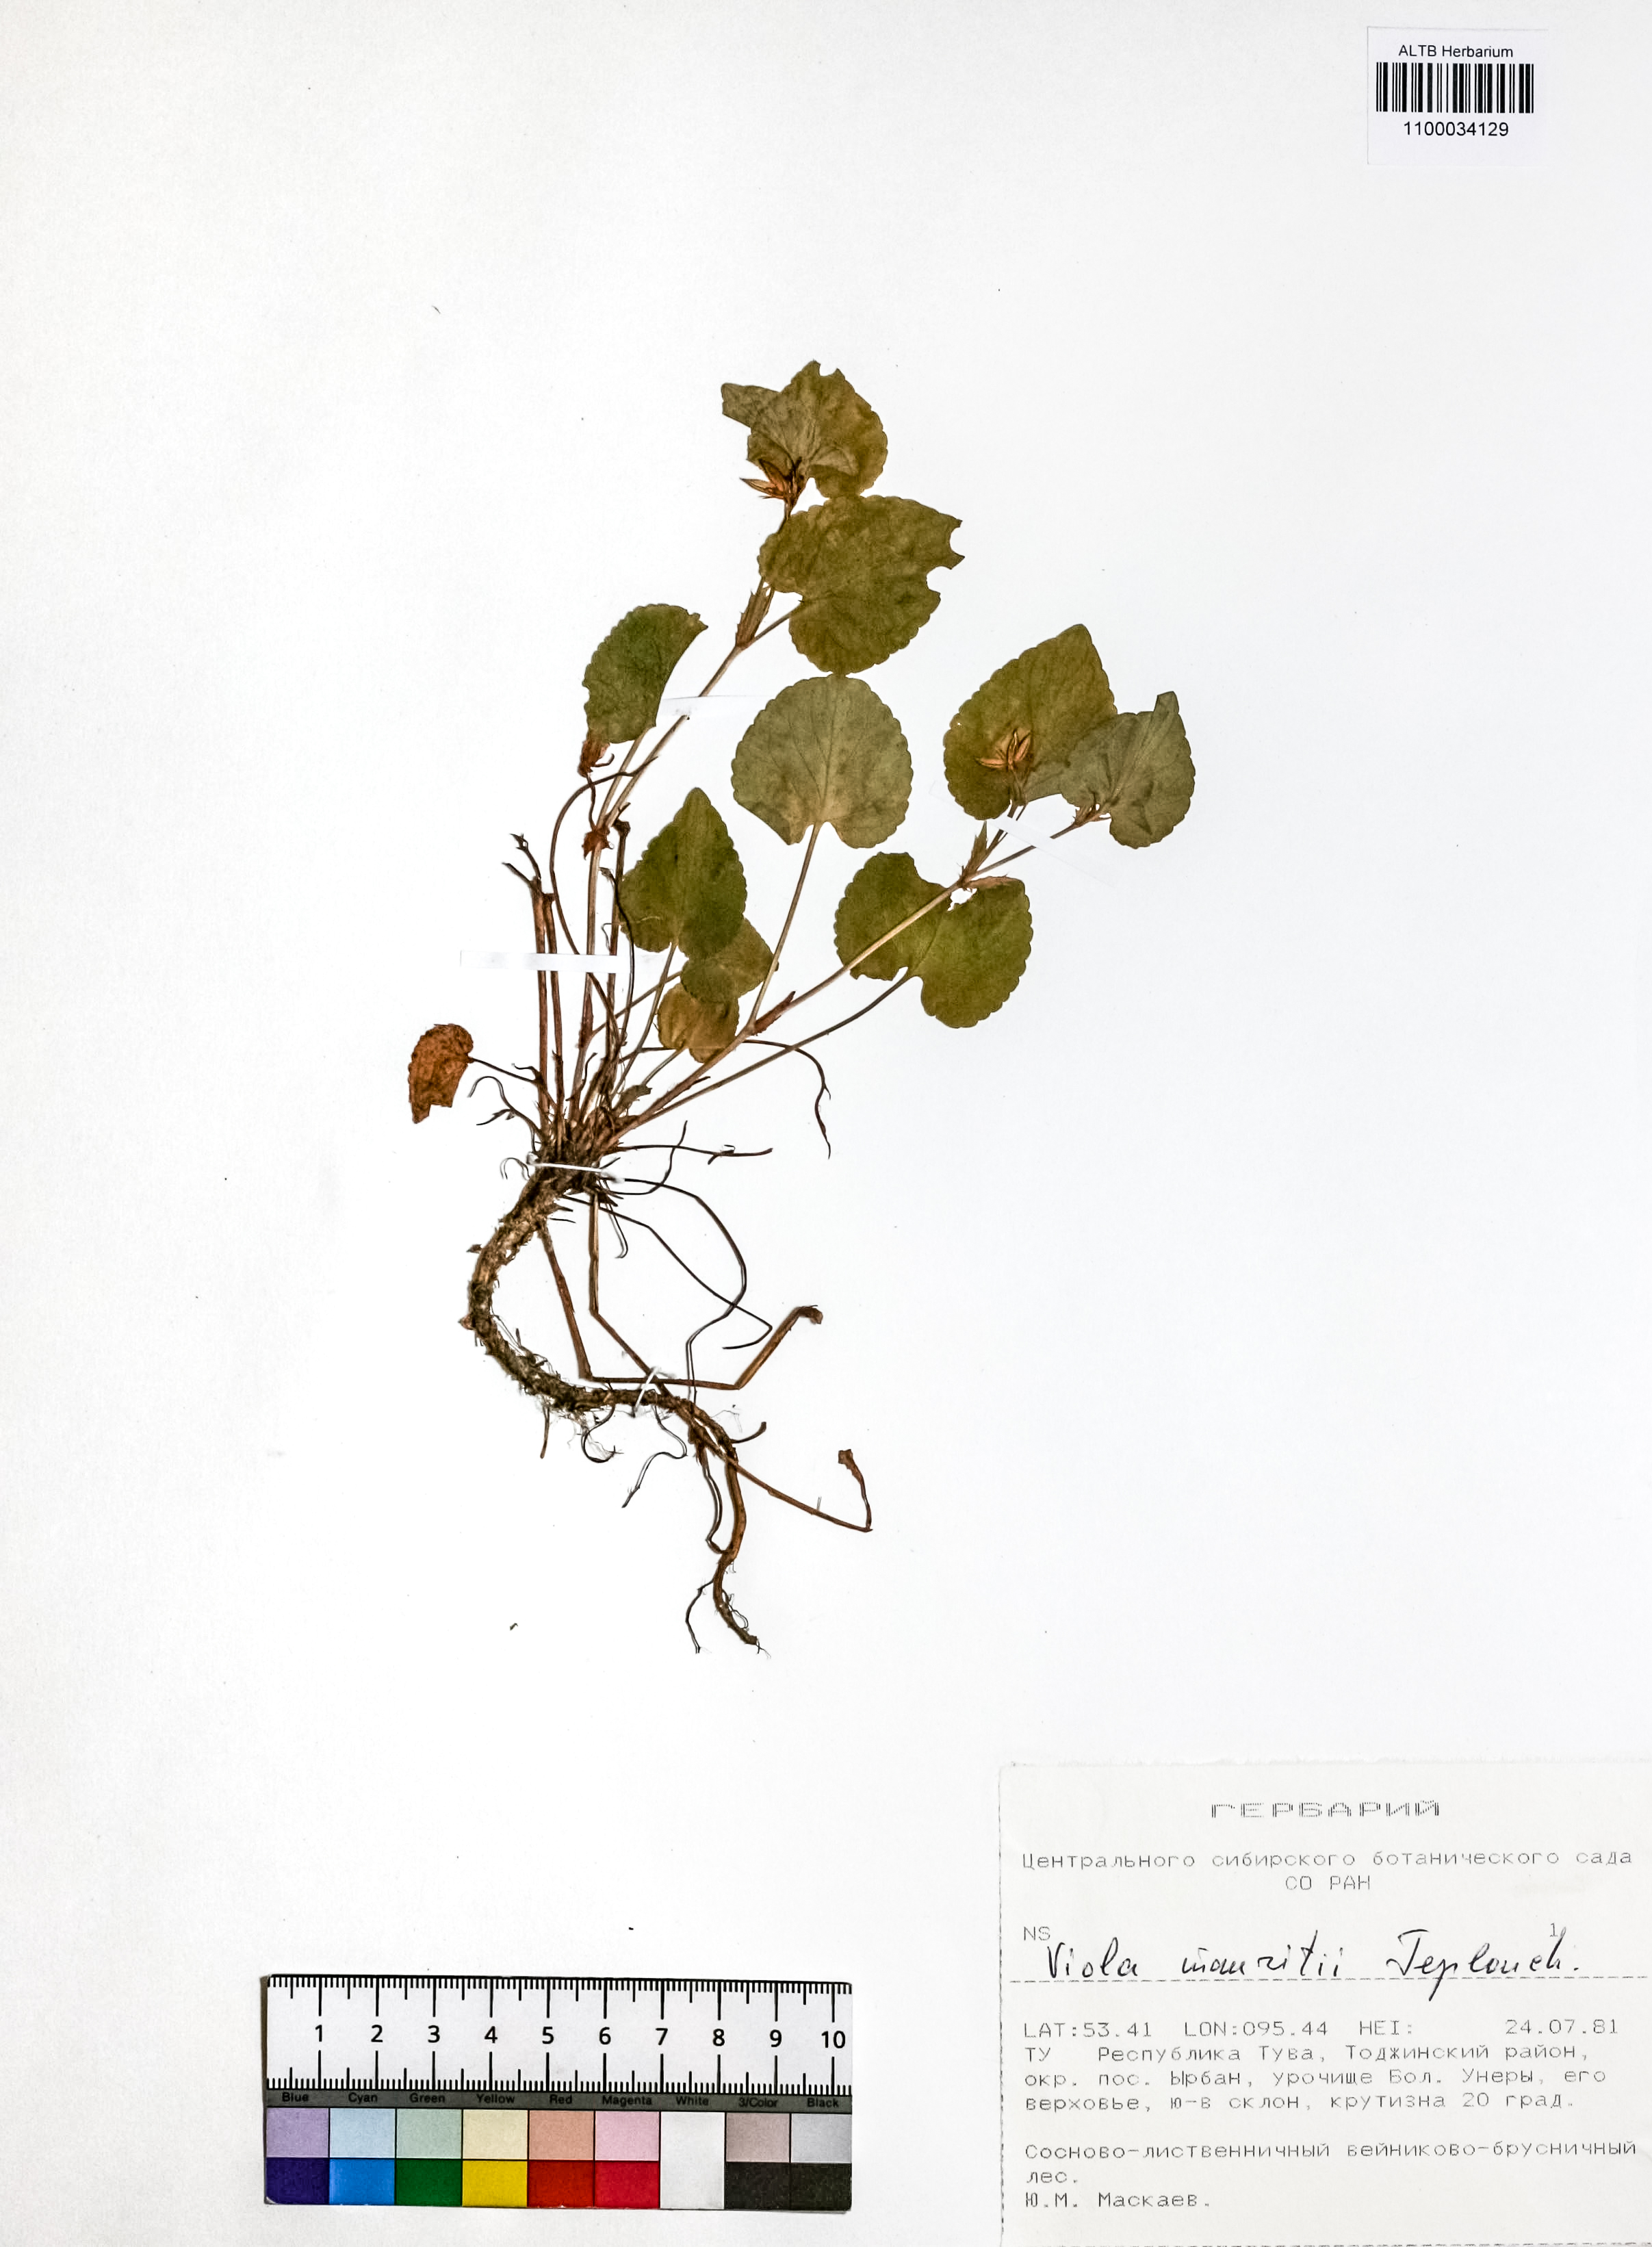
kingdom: Plantae
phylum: Tracheophyta
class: Magnoliopsida
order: Malpighiales
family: Violaceae
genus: Viola
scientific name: Viola mauritii
